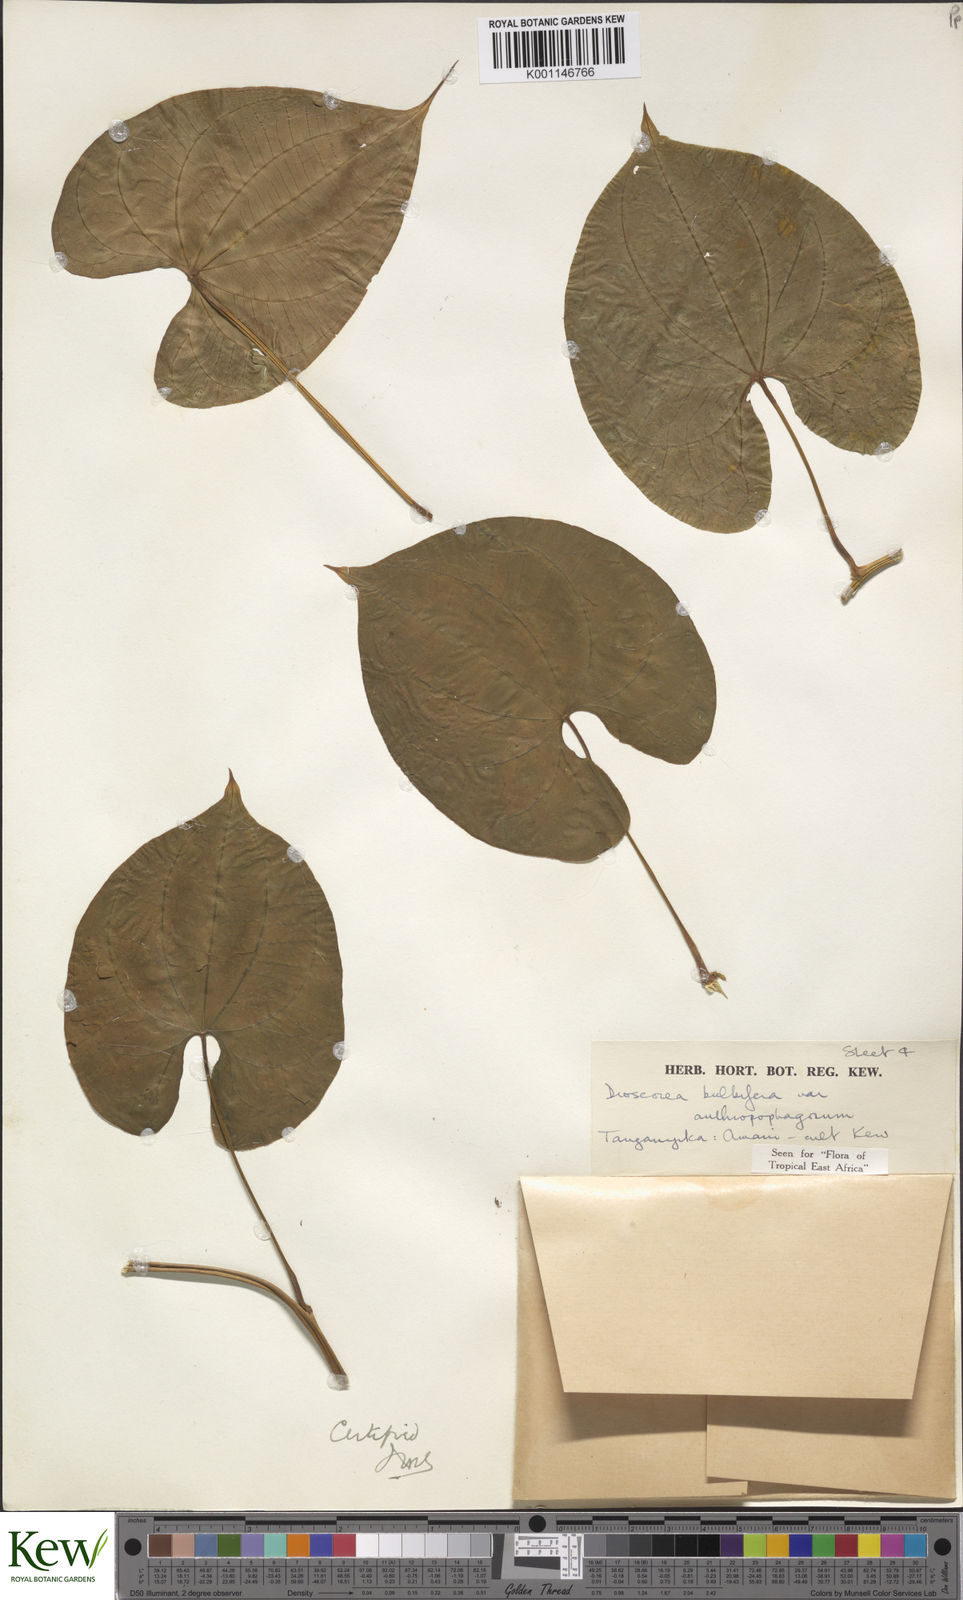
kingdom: Plantae
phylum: Tracheophyta
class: Liliopsida
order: Dioscoreales
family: Dioscoreaceae
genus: Dioscorea
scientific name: Dioscorea bulbifera
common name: Air yam
